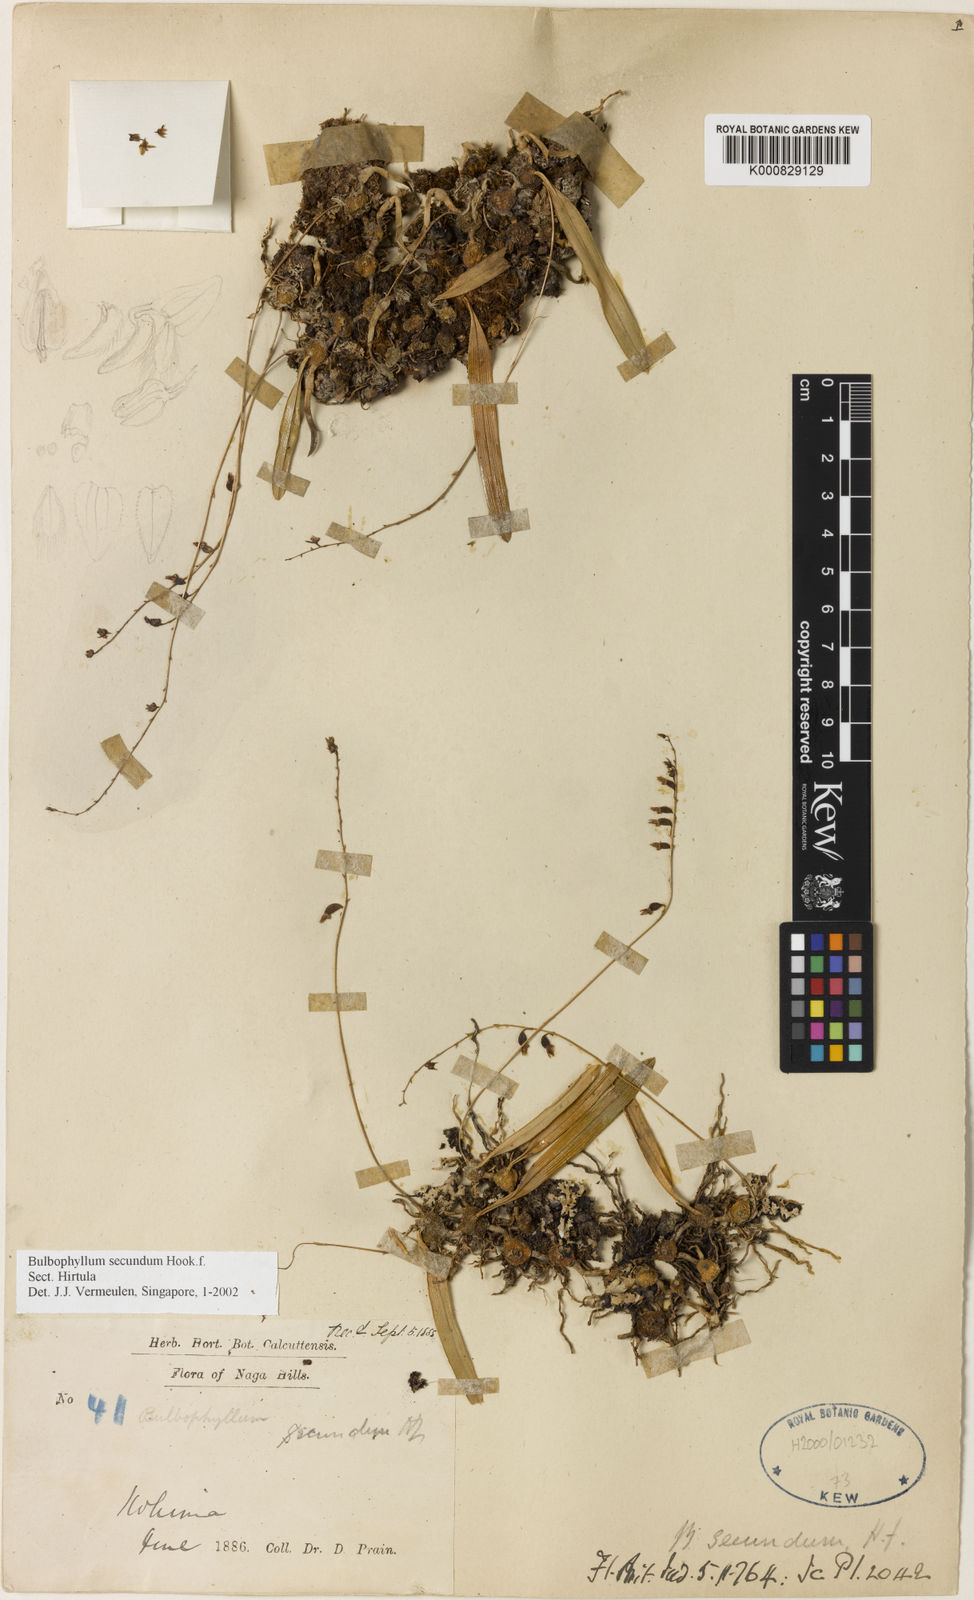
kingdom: Plantae
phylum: Tracheophyta
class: Liliopsida
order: Asparagales
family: Orchidaceae
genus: Bulbophyllum
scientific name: Bulbophyllum secundum
